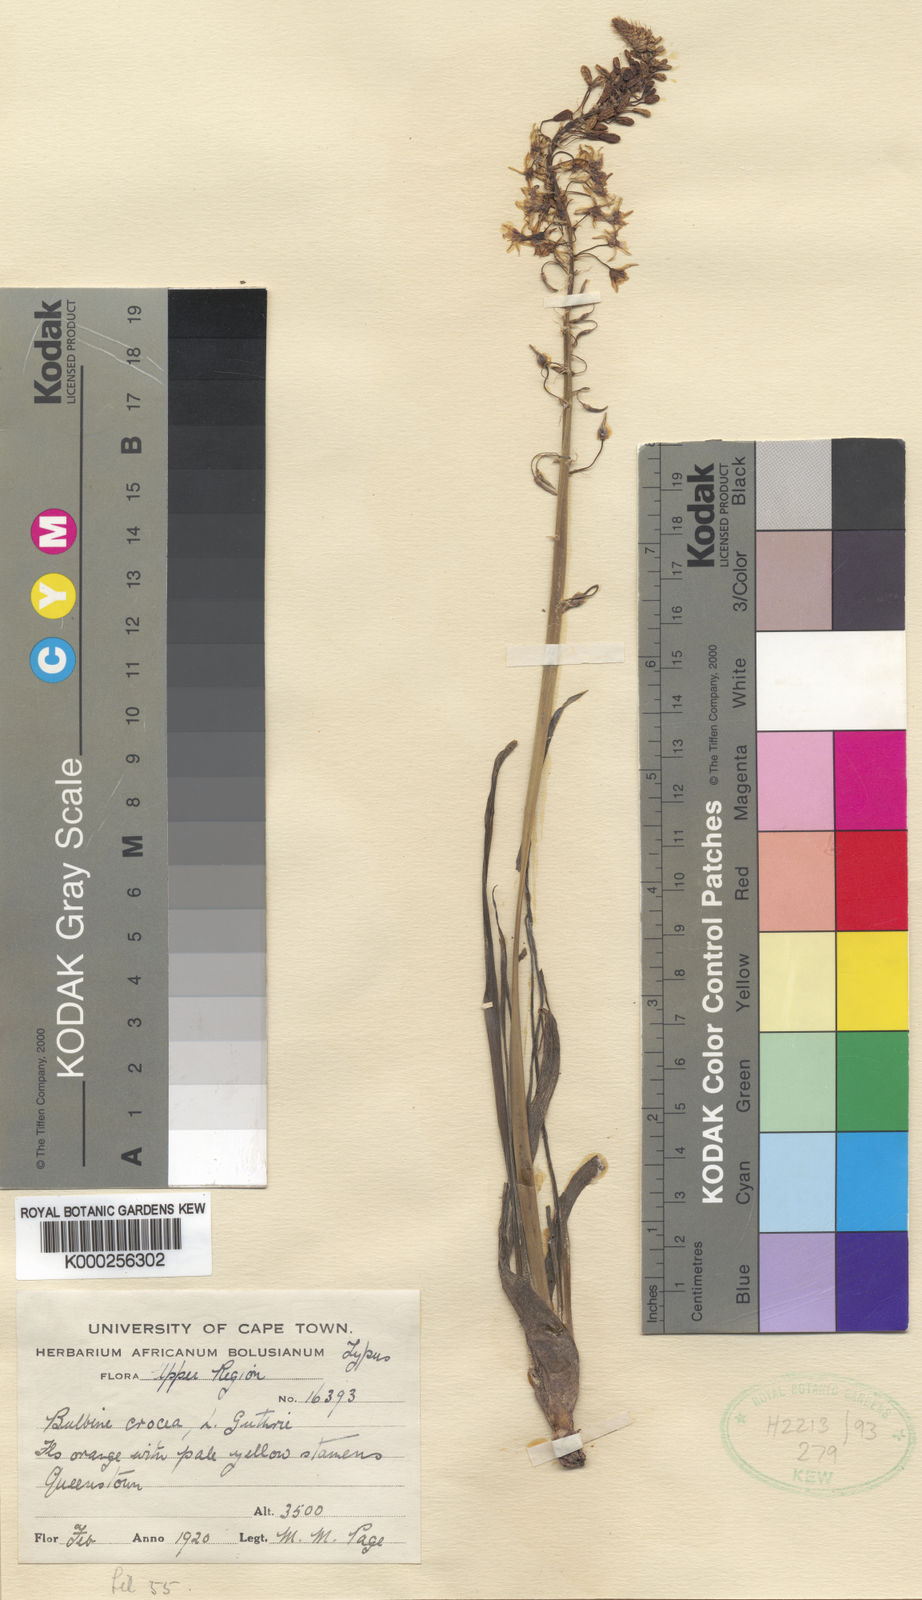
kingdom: Plantae
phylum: Tracheophyta
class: Liliopsida
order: Asparagales
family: Asphodelaceae
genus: Bulbine
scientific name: Bulbine asphodeloides
